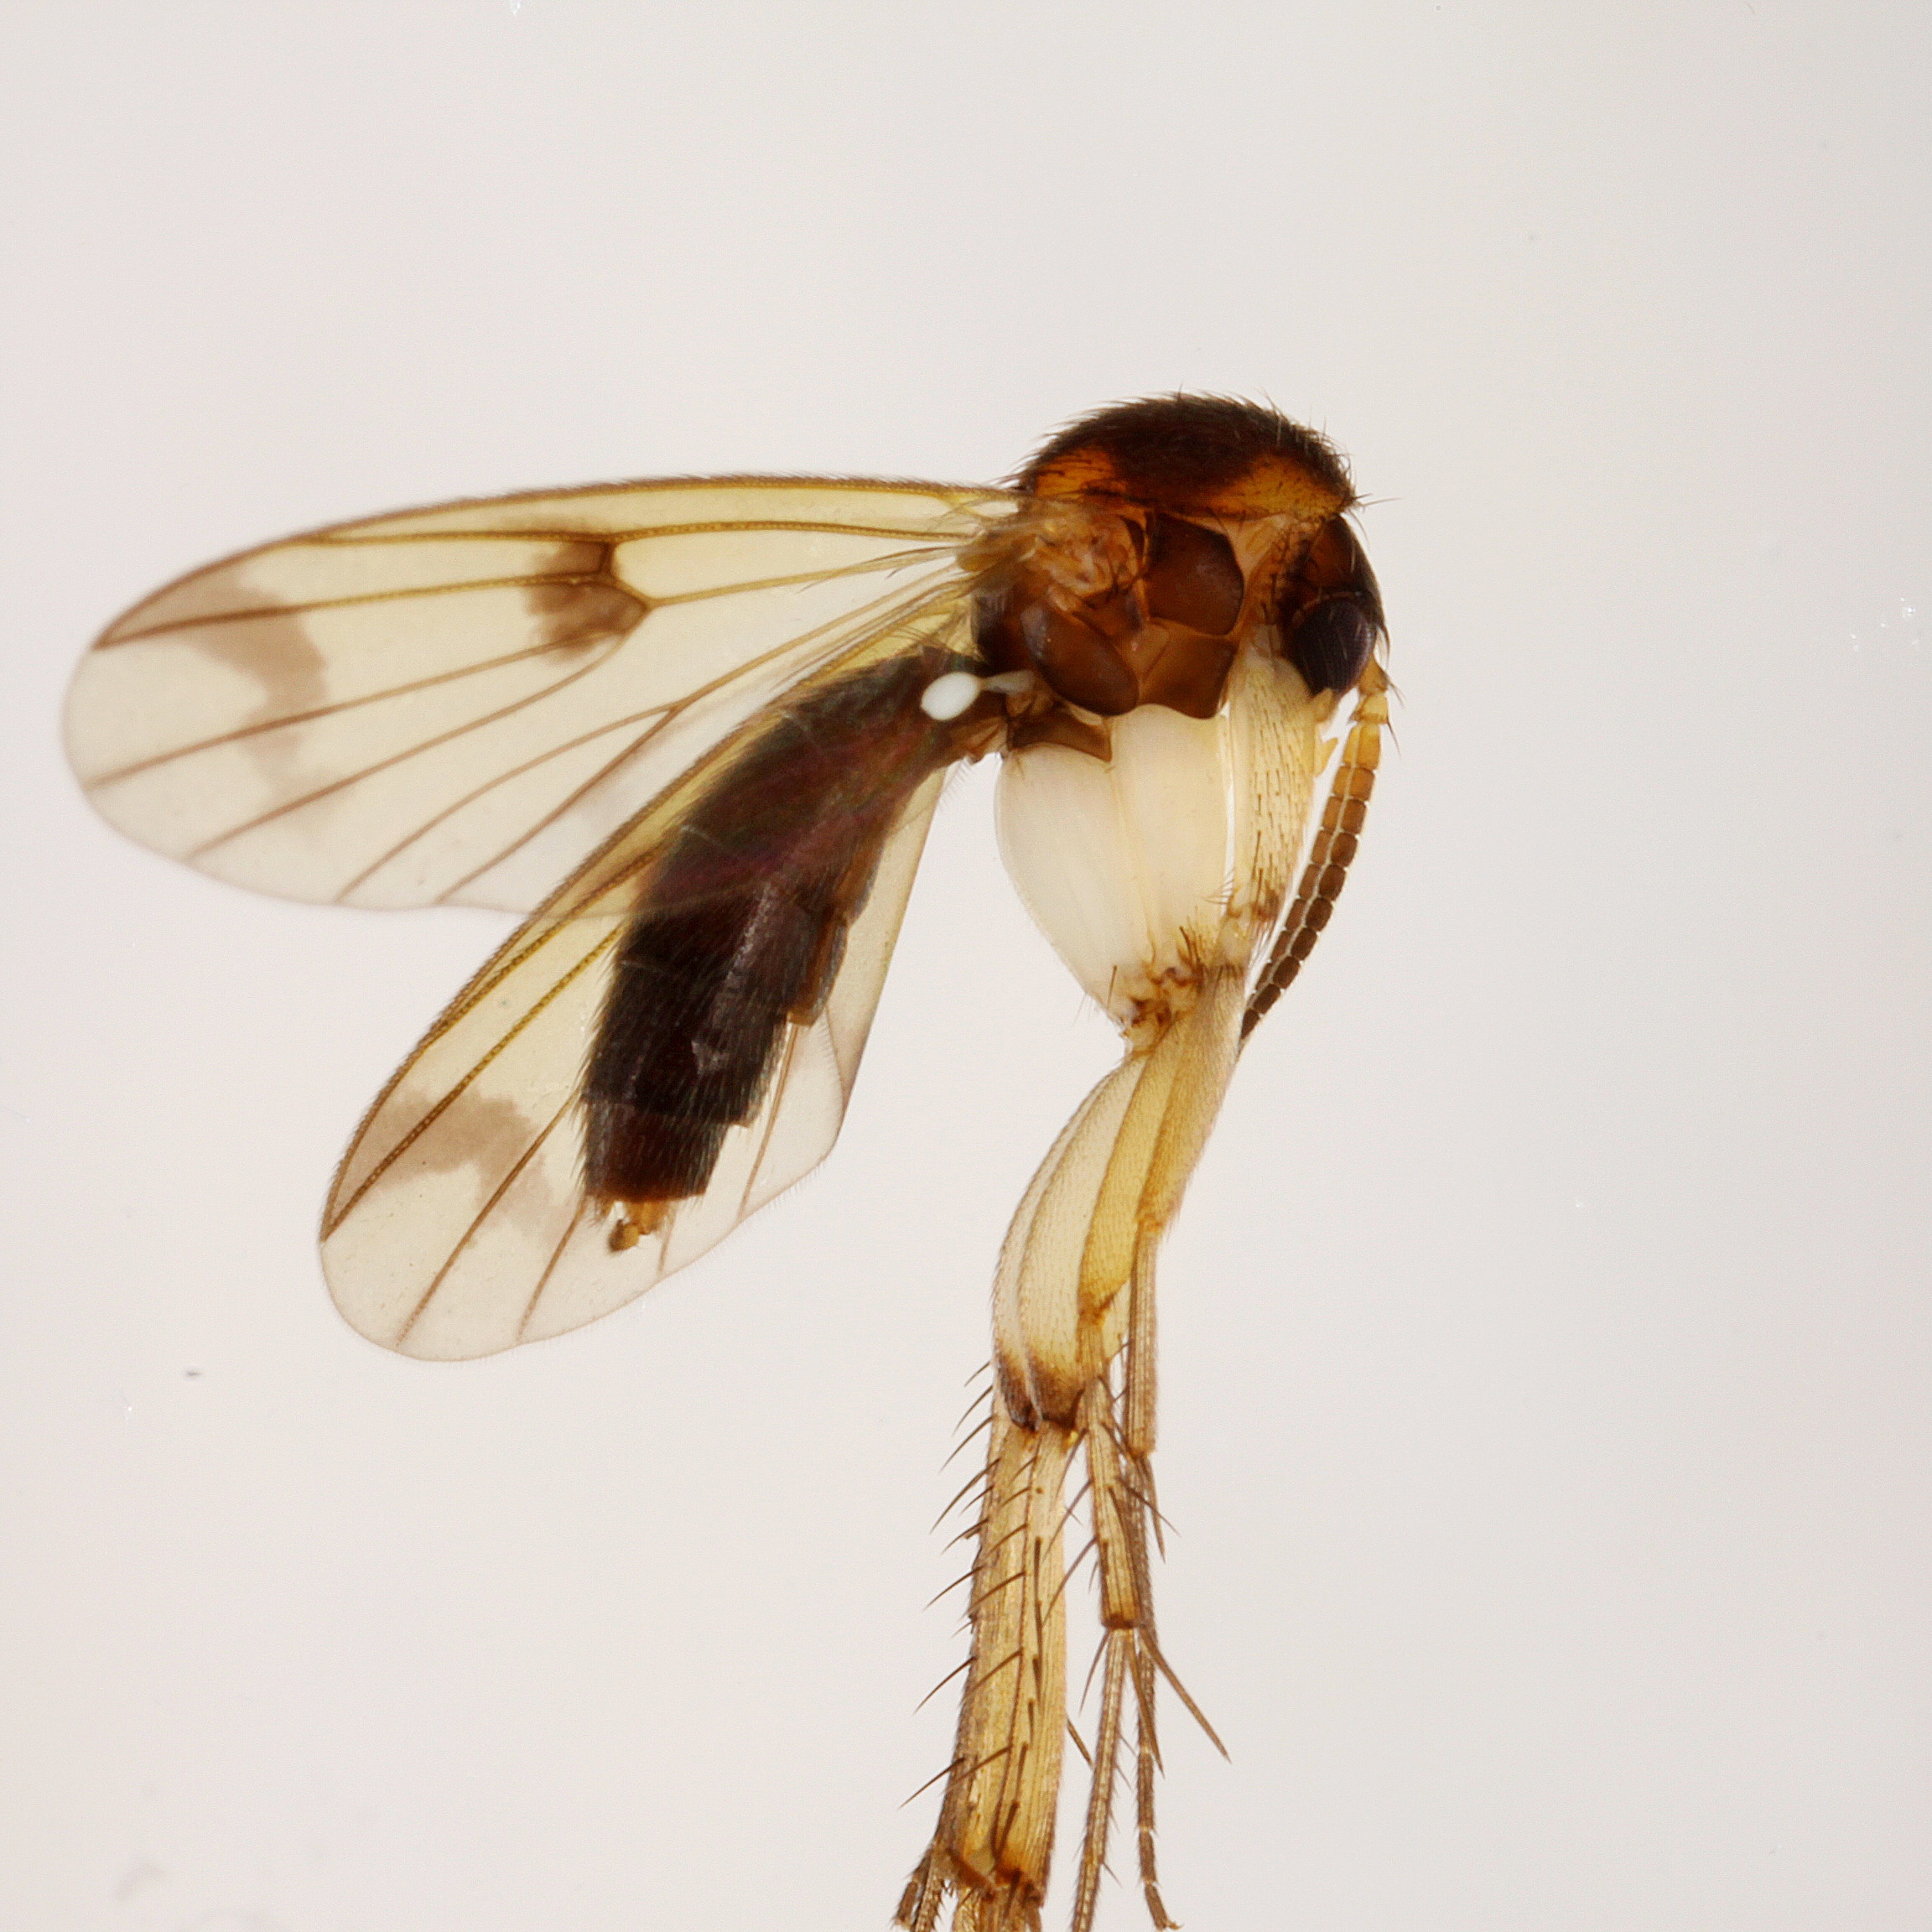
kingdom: Animalia
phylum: Arthropoda
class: Insecta
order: Diptera
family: Mycetophilidae
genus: Mycetophila
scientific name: Mycetophila curviseta
